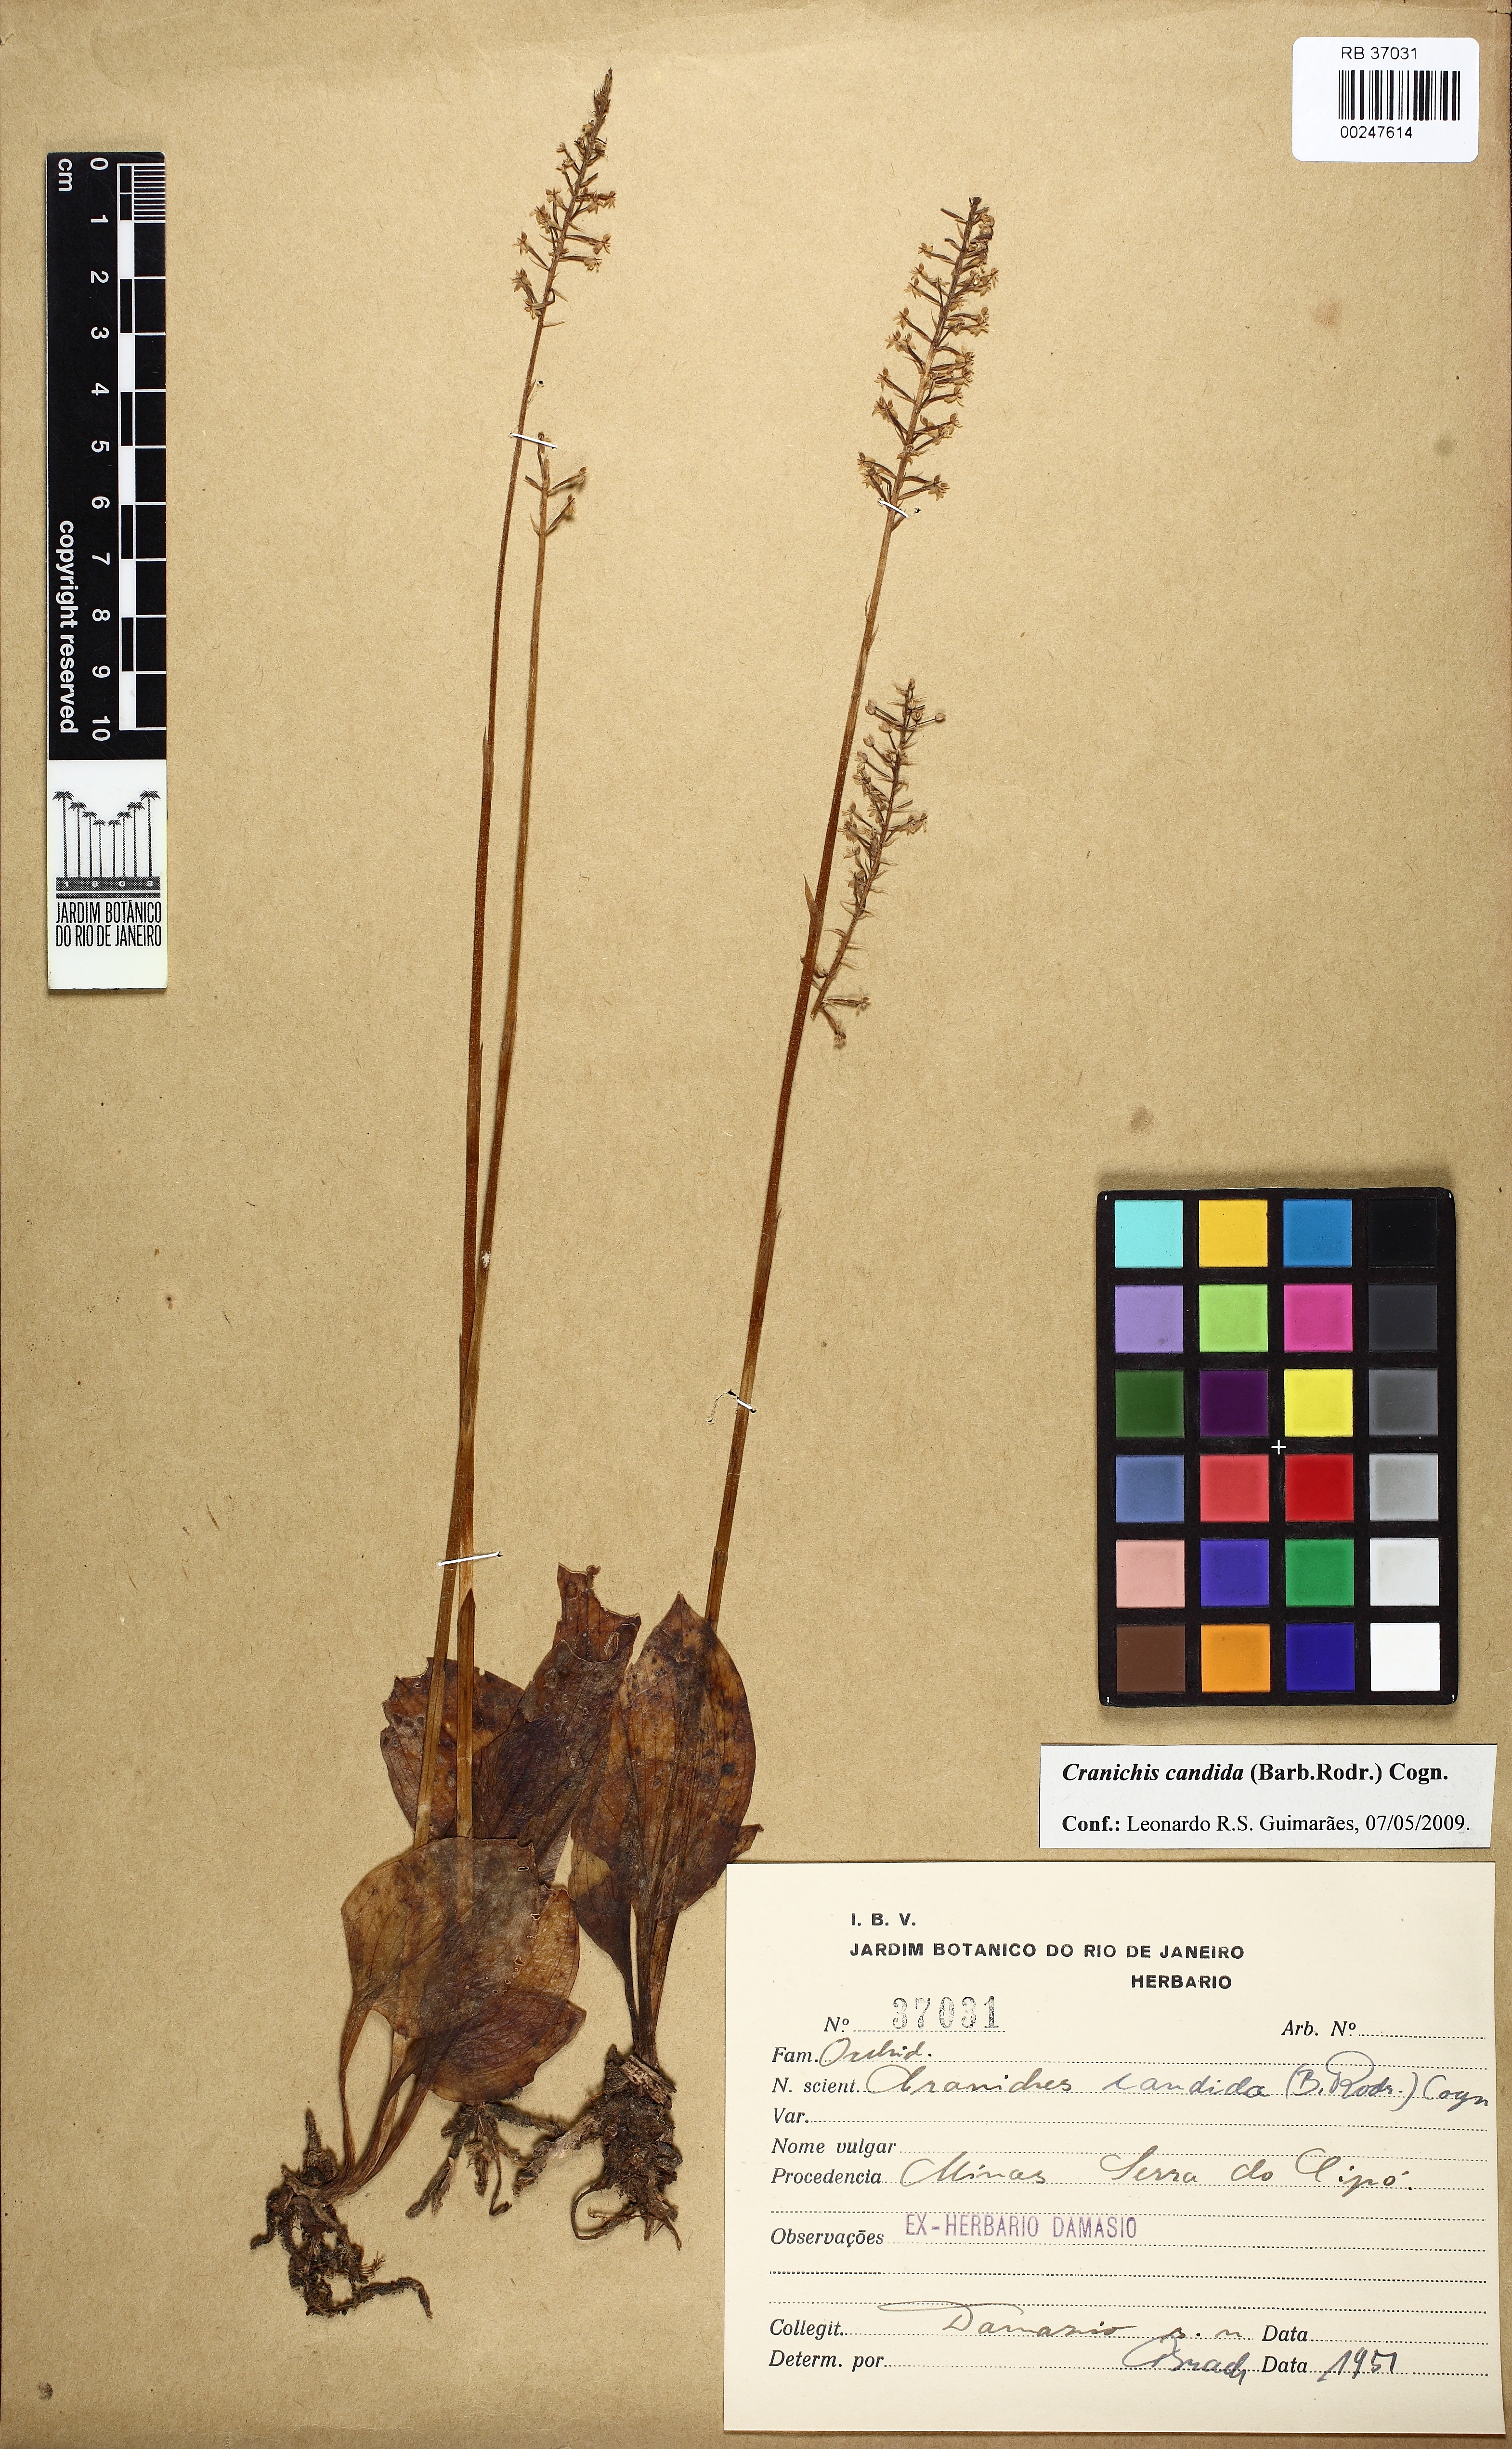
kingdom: Plantae
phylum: Tracheophyta
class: Liliopsida
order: Asparagales
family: Orchidaceae
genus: Cranichis
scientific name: Cranichis candida
